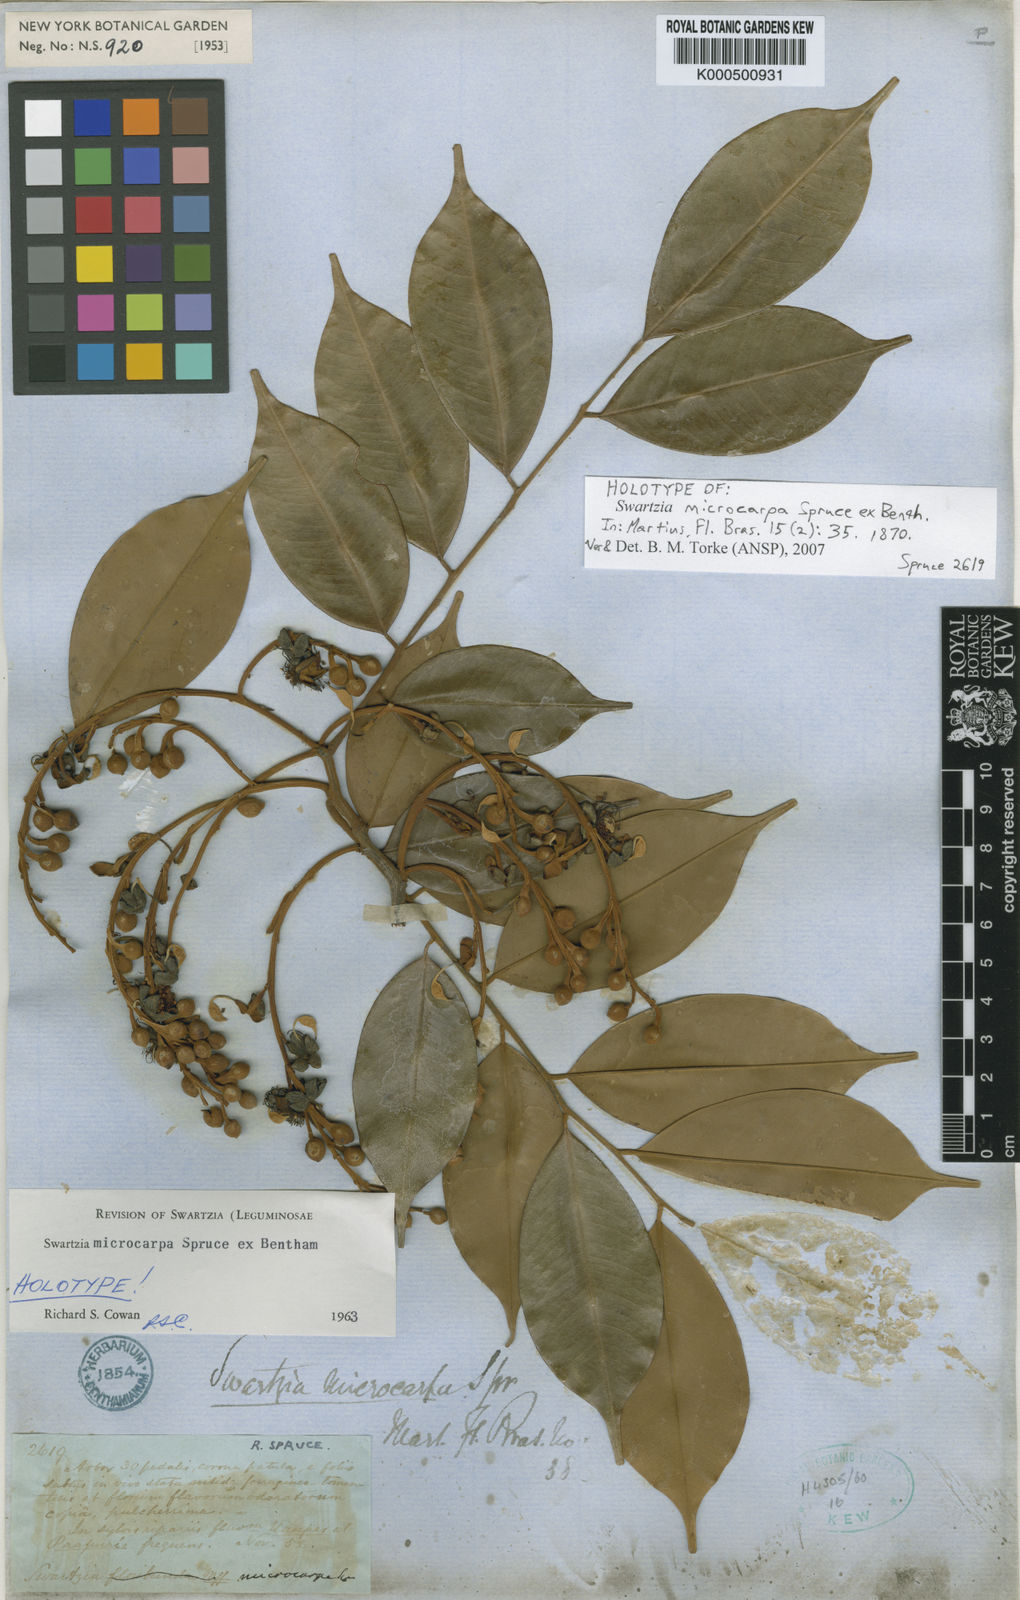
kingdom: Plantae
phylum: Tracheophyta
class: Magnoliopsida
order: Fabales
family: Fabaceae
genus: Swartzia
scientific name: Swartzia microcarpa
